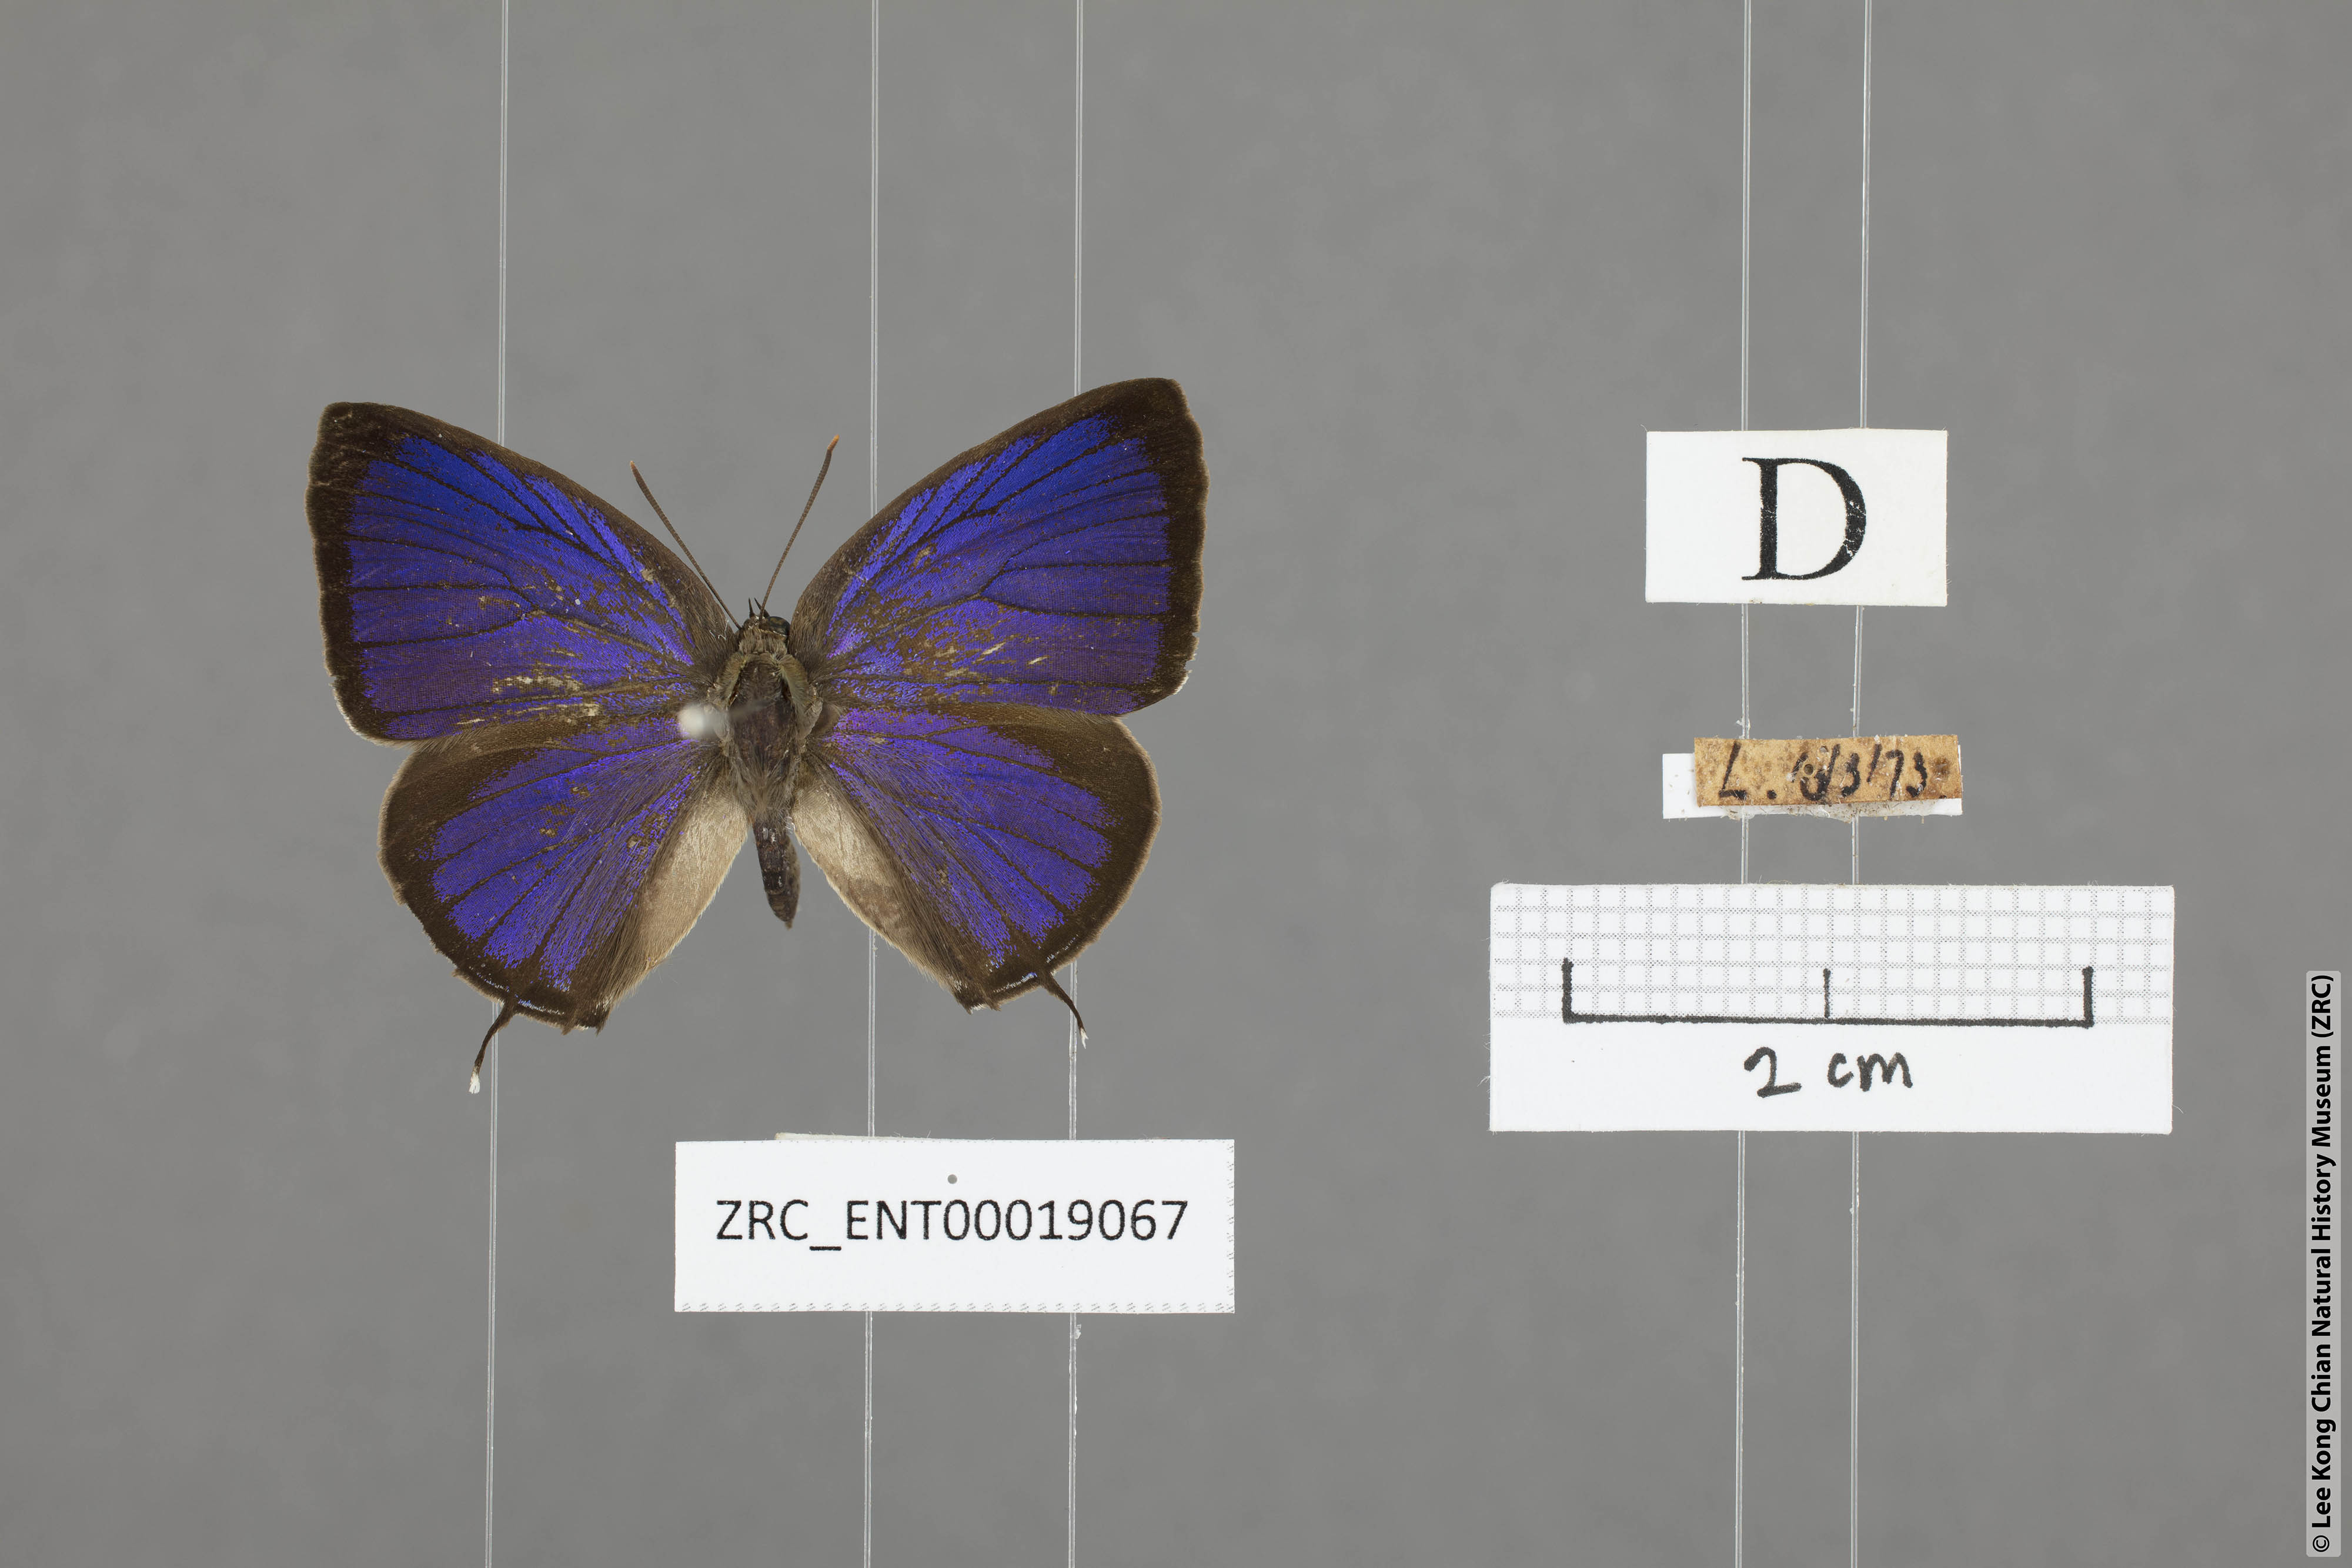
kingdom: Animalia
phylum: Arthropoda
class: Insecta
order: Lepidoptera
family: Lycaenidae
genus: Arhopala
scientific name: Arhopala aida
